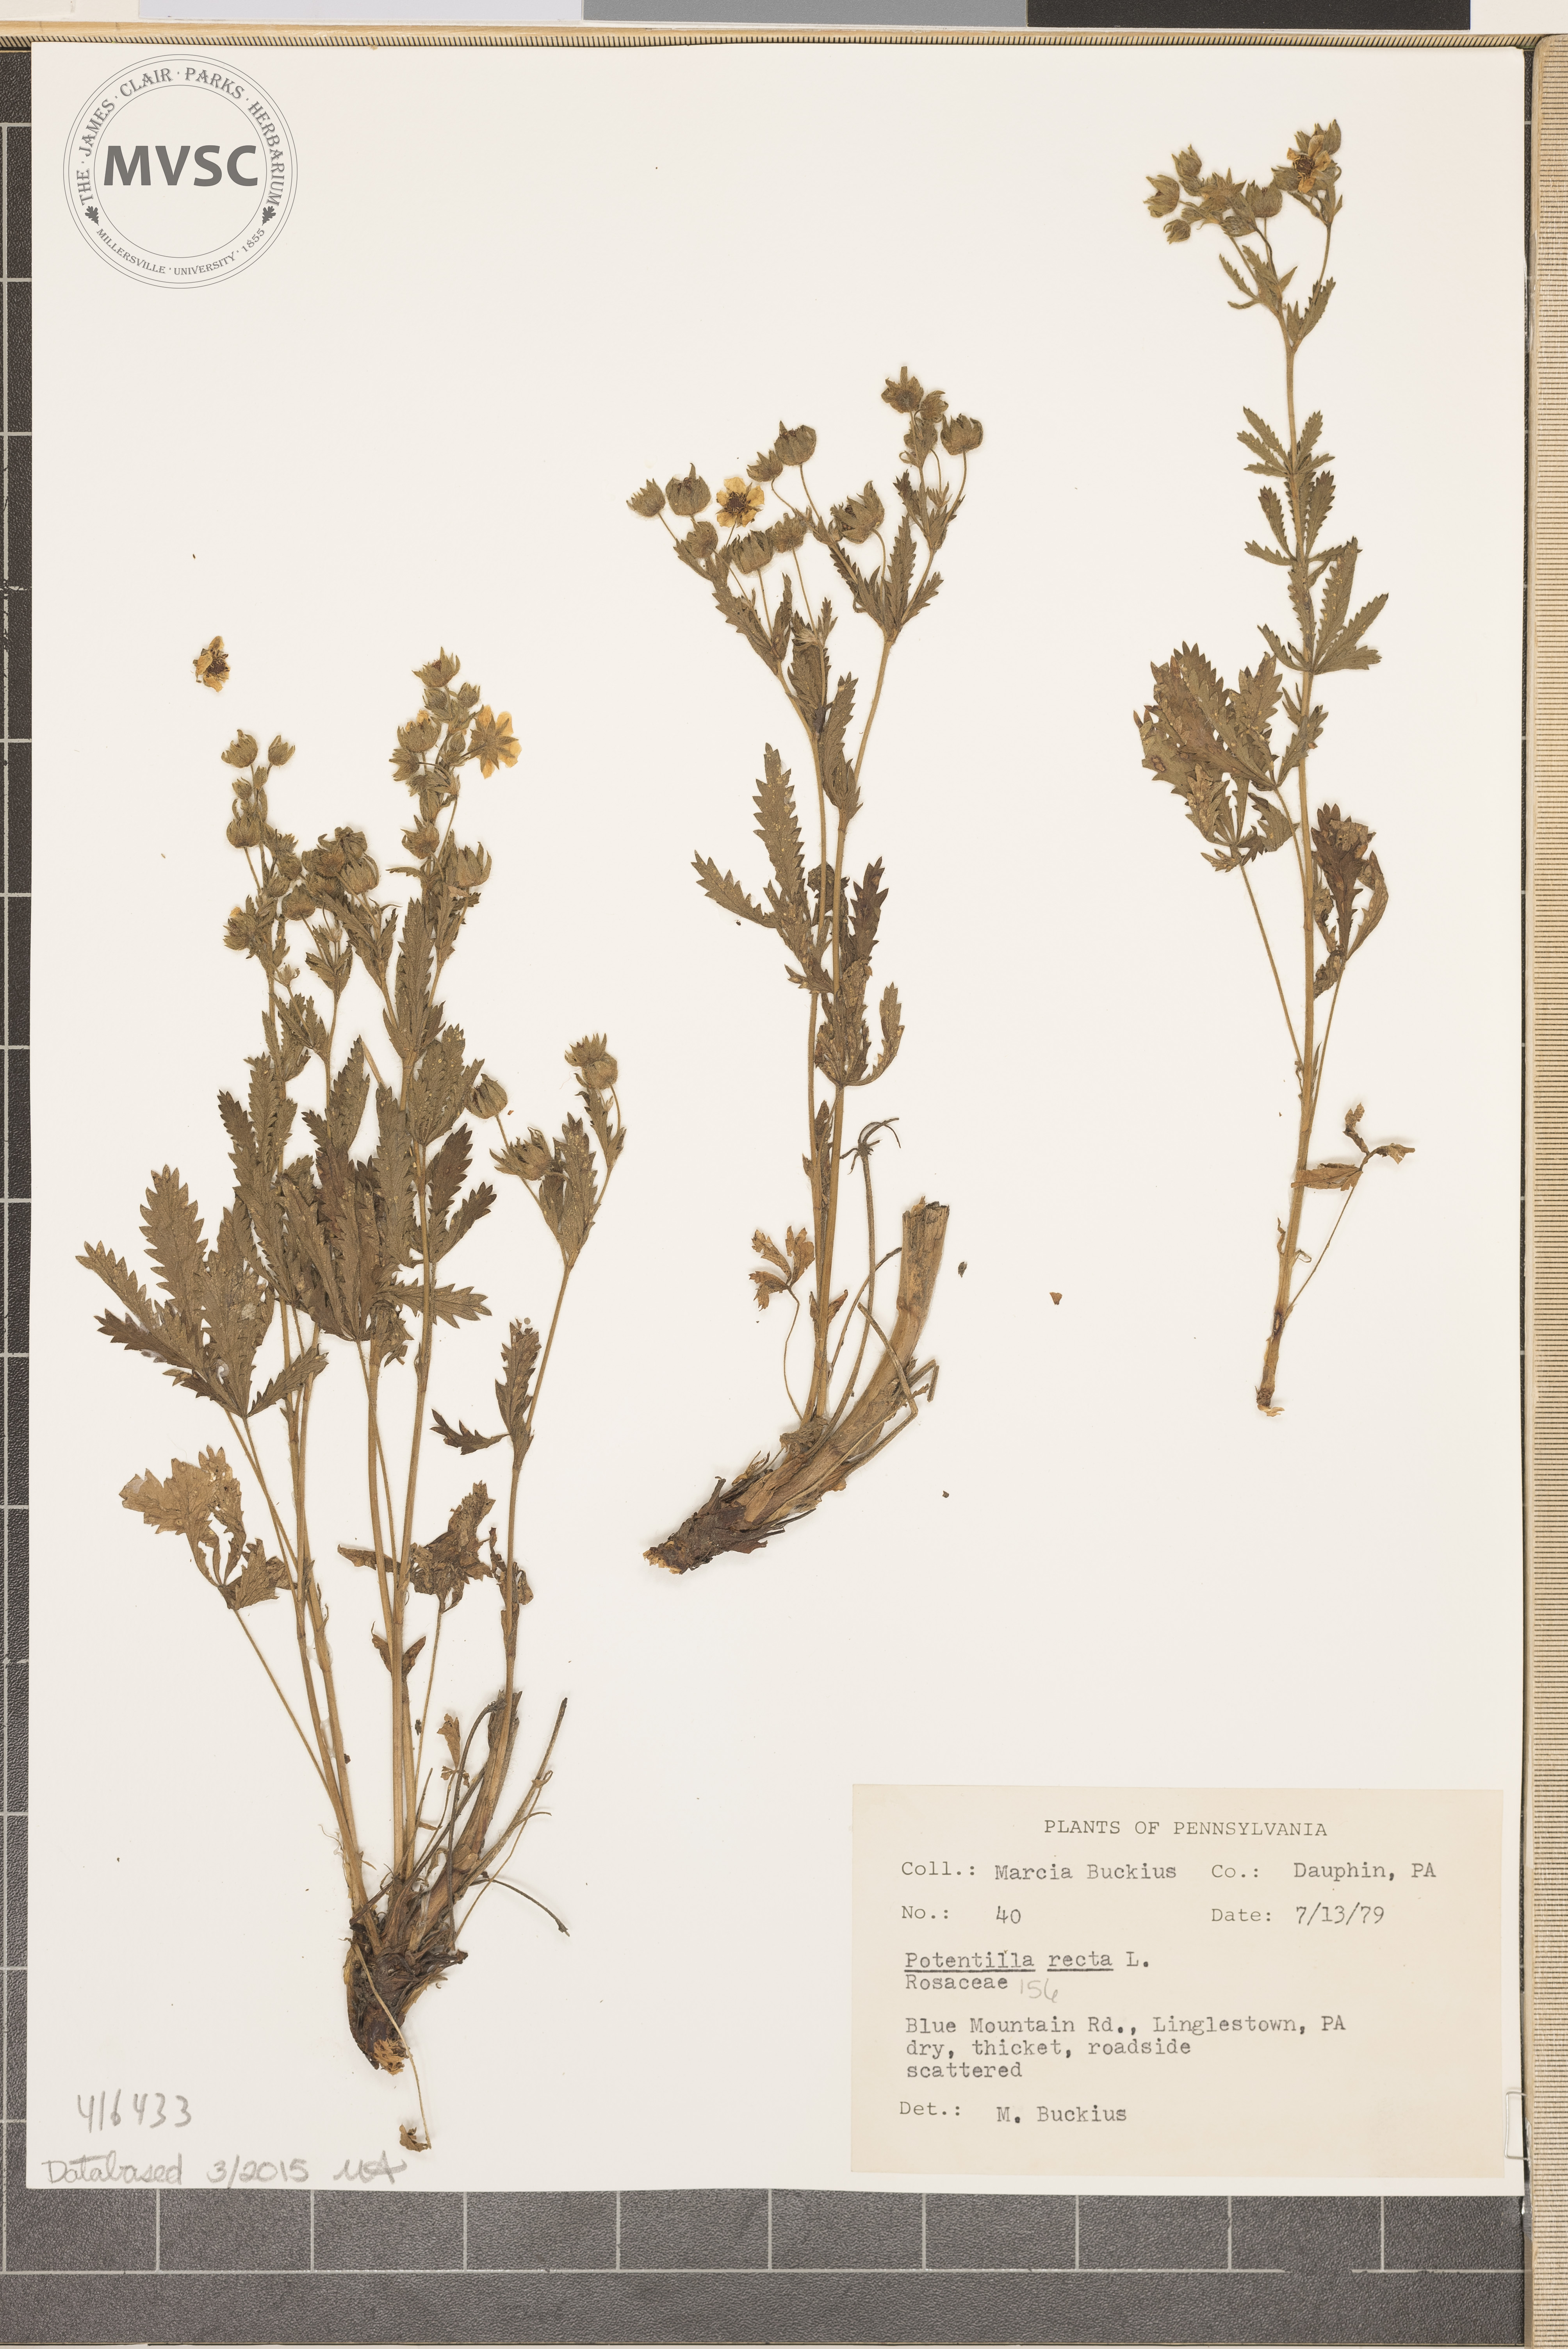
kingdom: Plantae
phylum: Tracheophyta
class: Magnoliopsida
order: Rosales
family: Rosaceae
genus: Potentilla
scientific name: Potentilla recta
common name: Sulphur Cinquefoil
